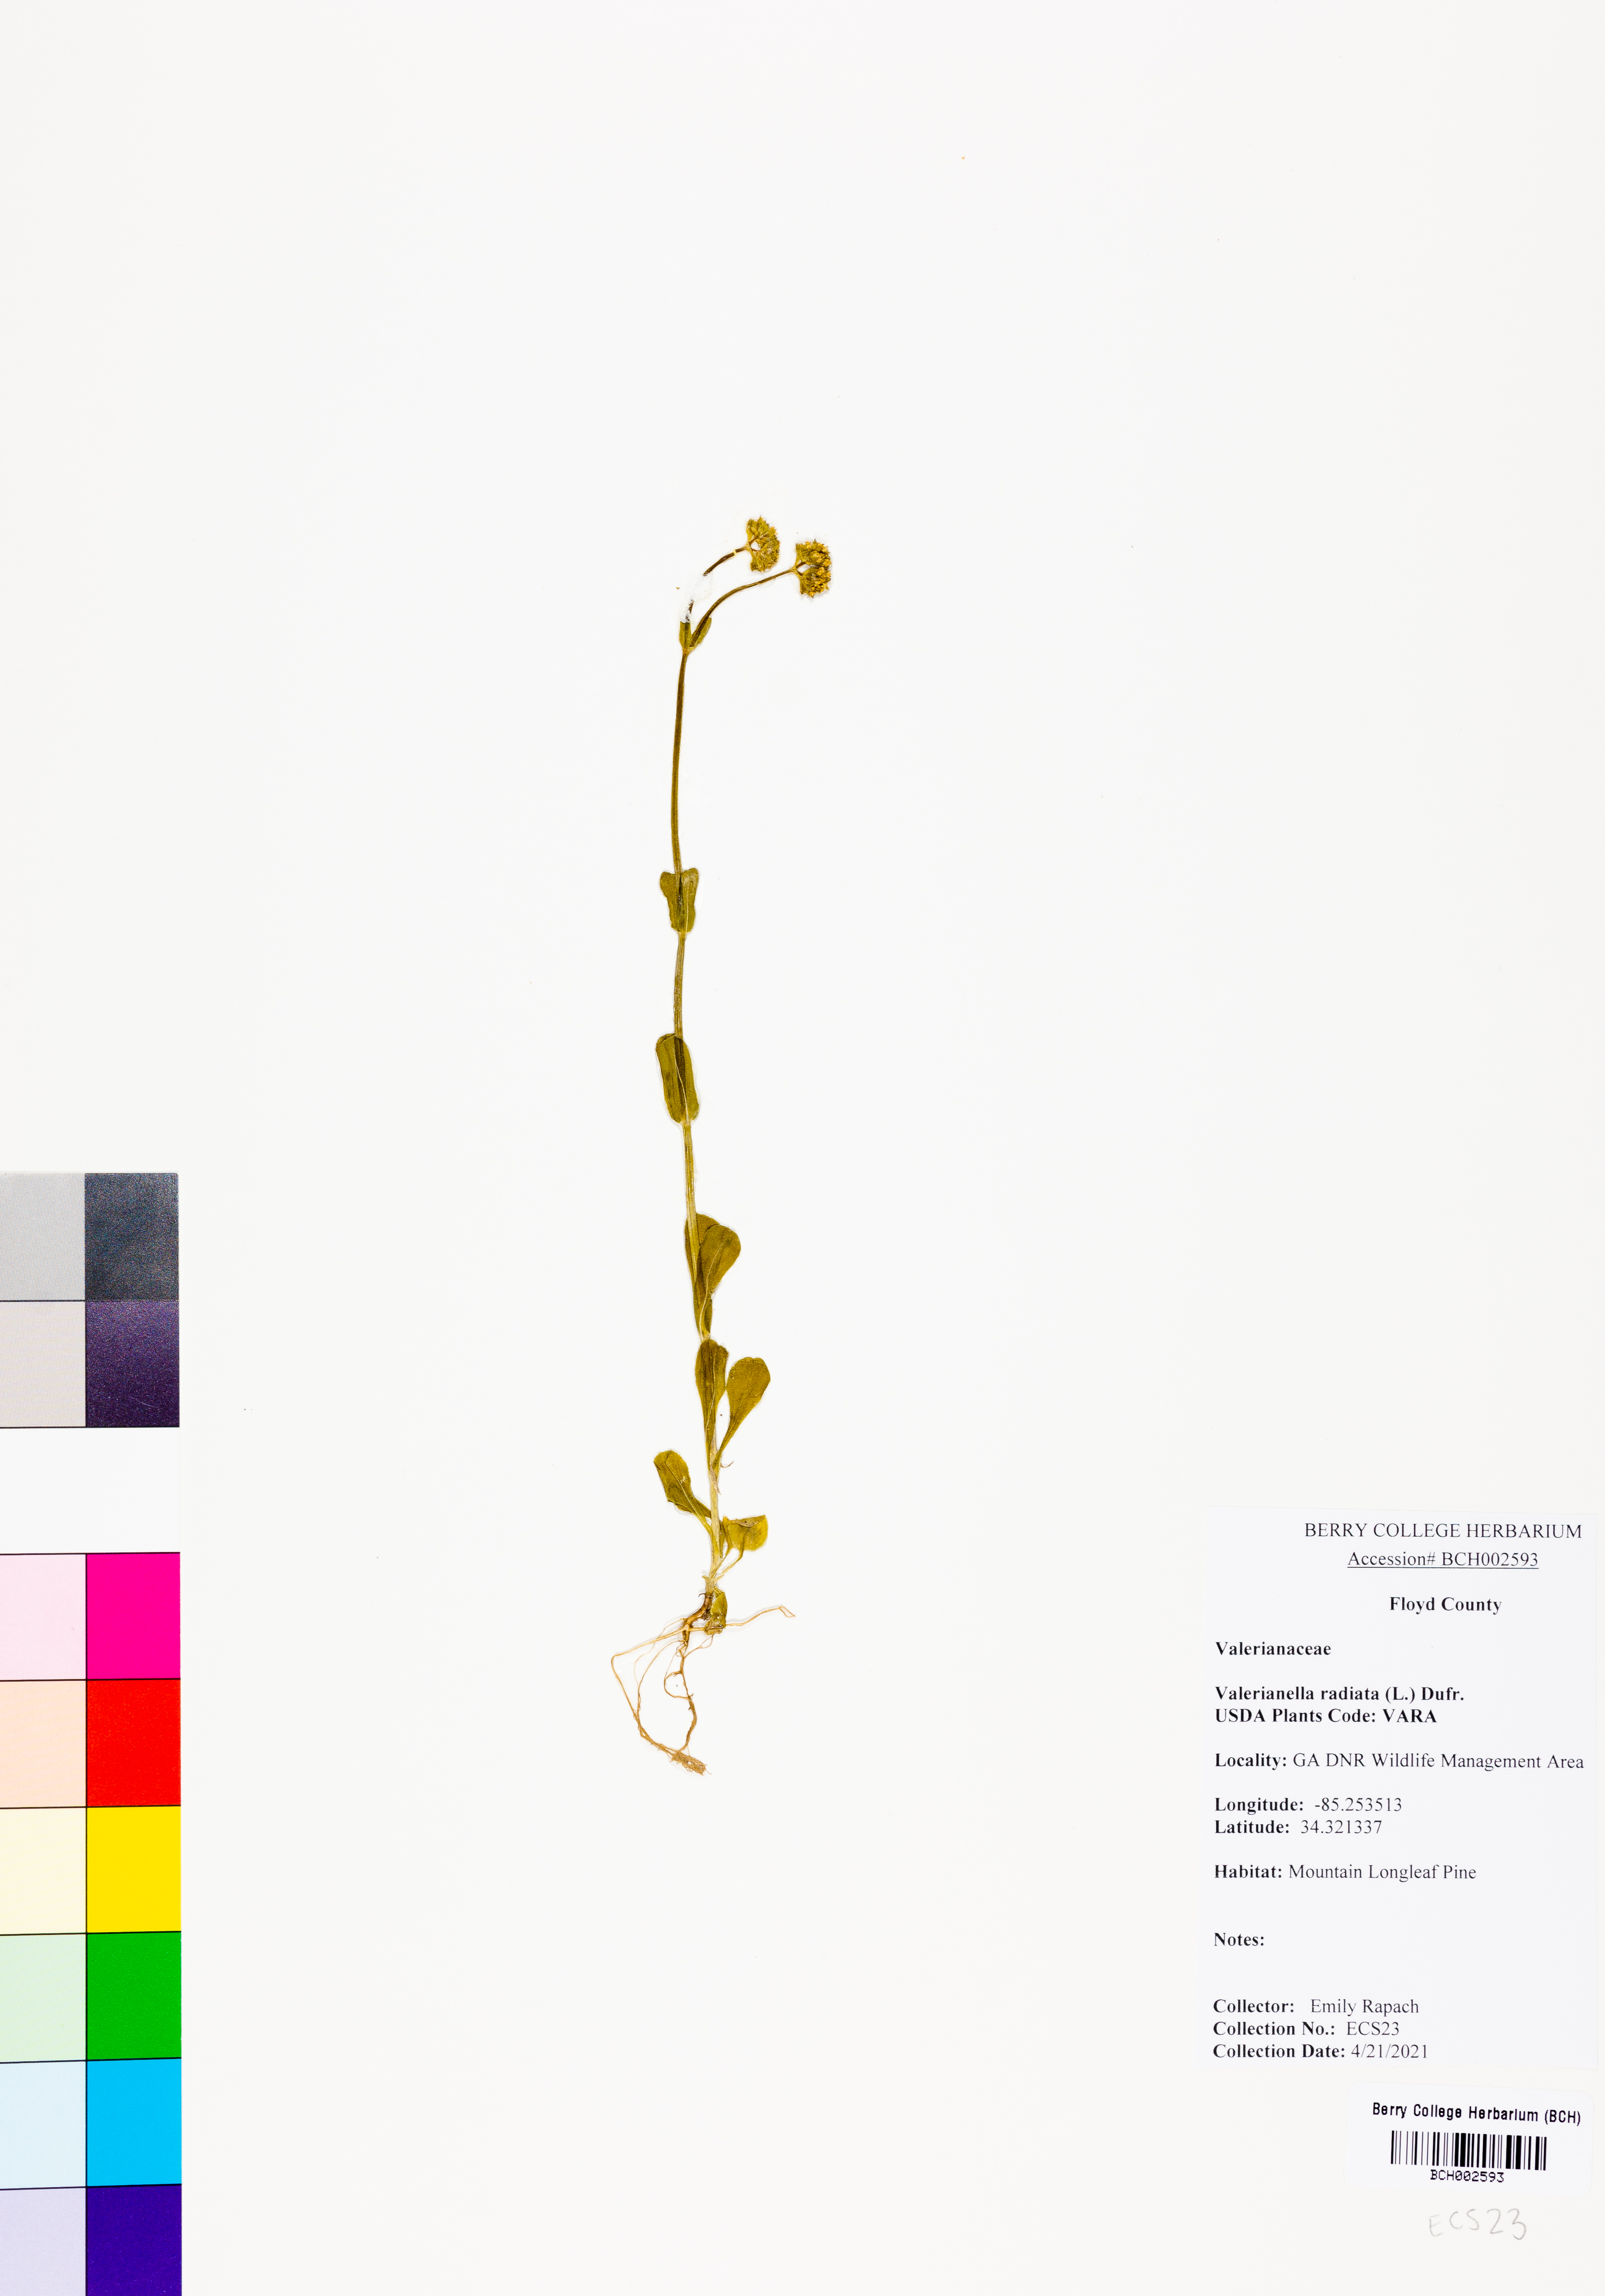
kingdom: Plantae
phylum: Tracheophyta
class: Magnoliopsida
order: Dipsacales
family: Caprifoliaceae
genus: Valerianella
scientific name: Valerianella radiata
